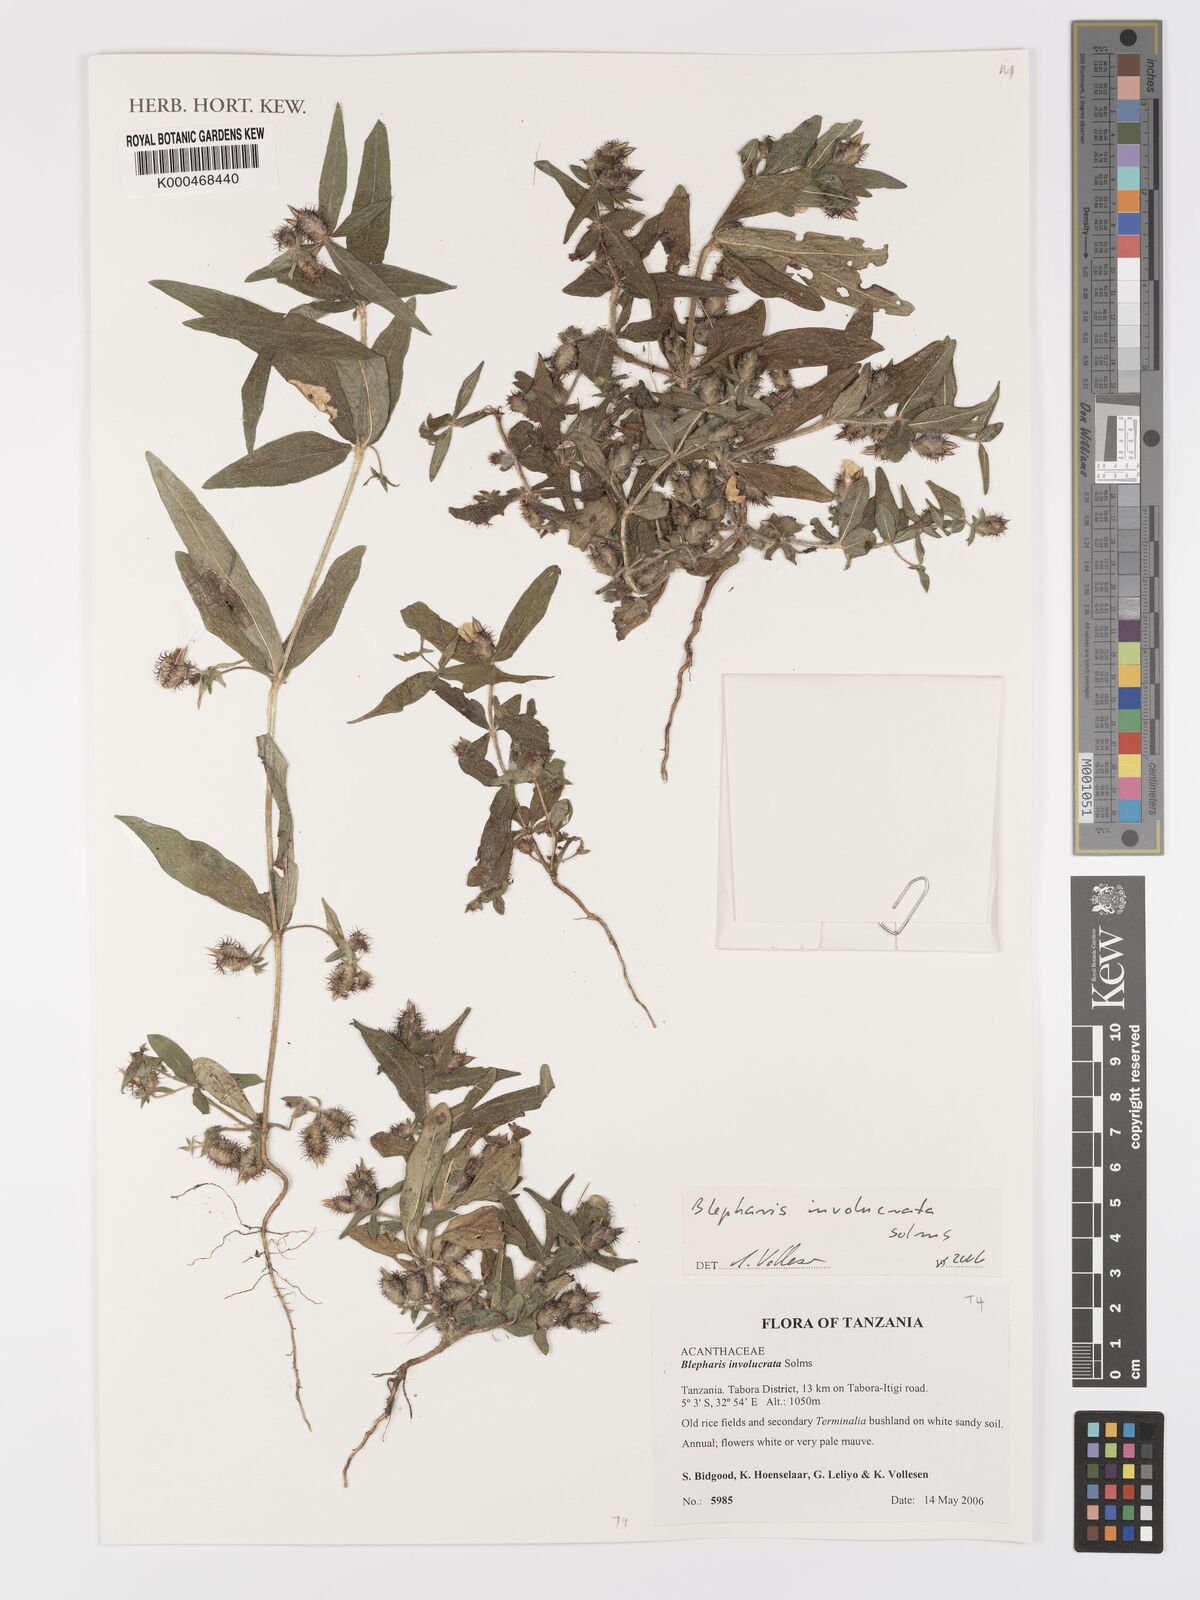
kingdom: Plantae
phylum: Tracheophyta
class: Magnoliopsida
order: Lamiales
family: Acanthaceae
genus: Blepharis
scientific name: Blepharis
